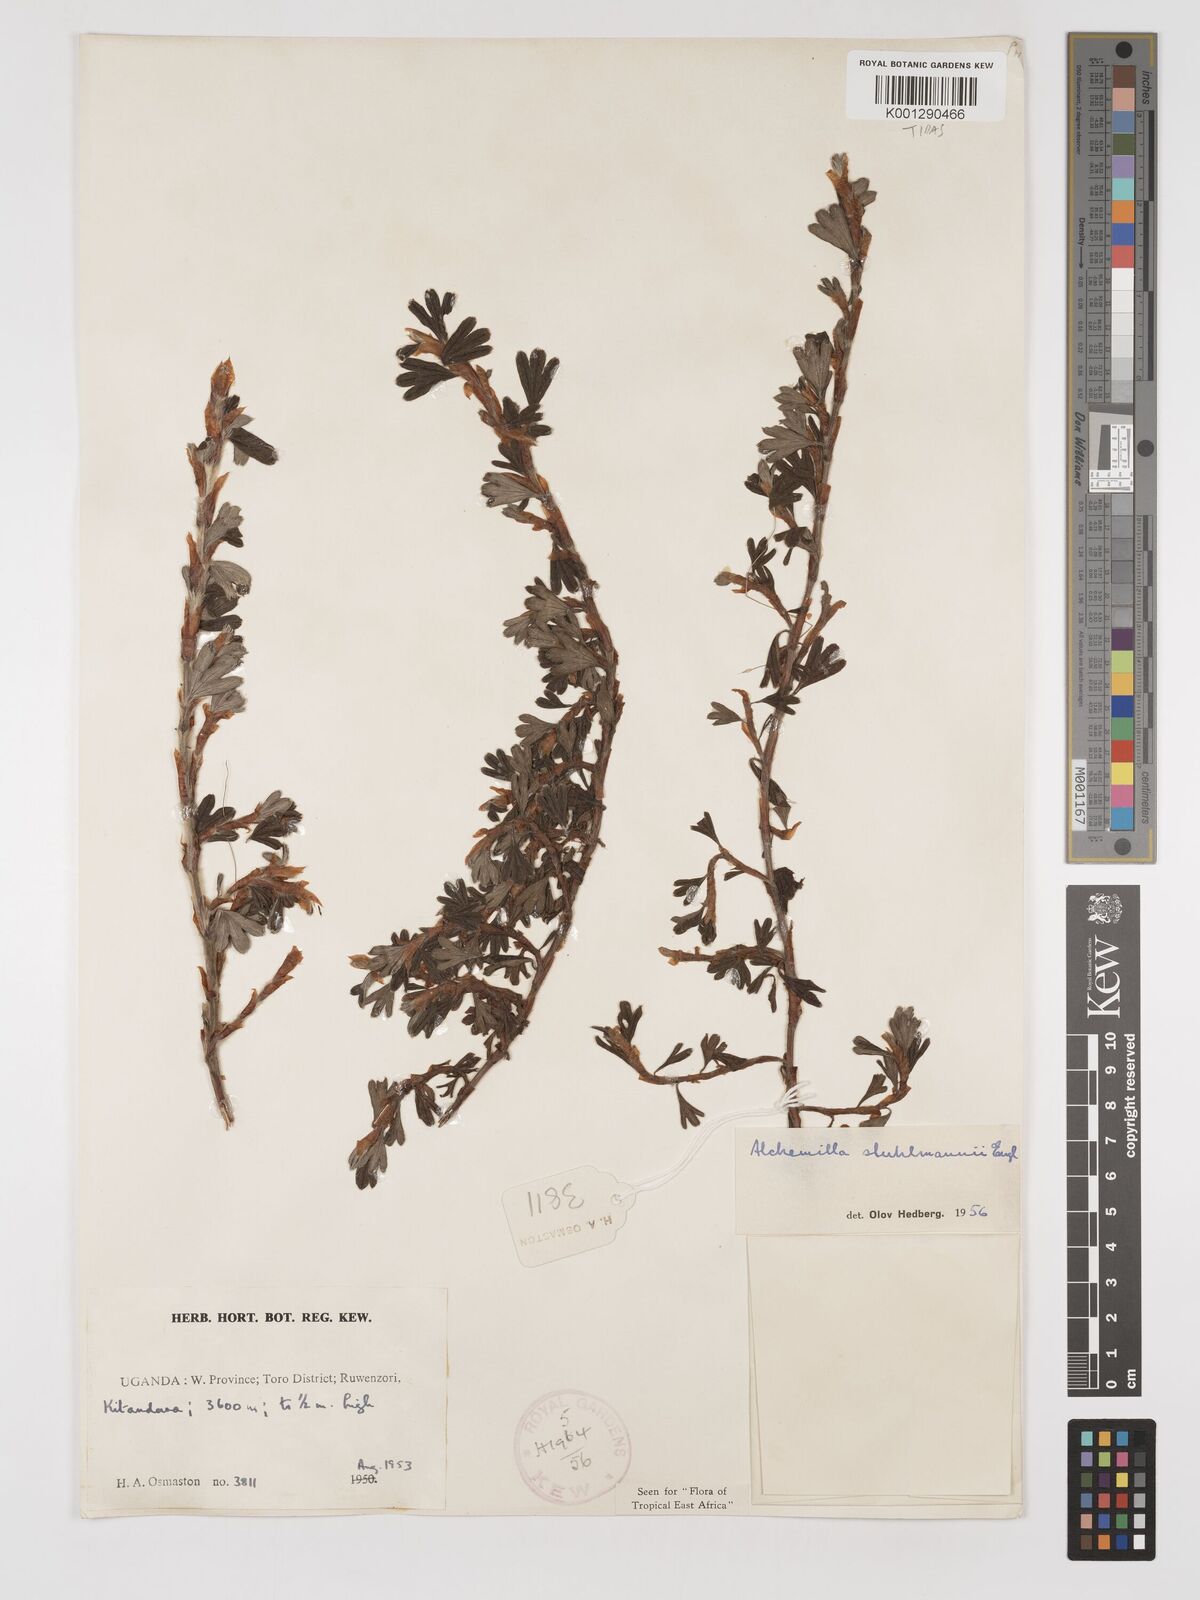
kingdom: Plantae
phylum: Tracheophyta
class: Magnoliopsida
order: Rosales
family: Rosaceae
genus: Alchemilla
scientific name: Alchemilla stuhlmannii
